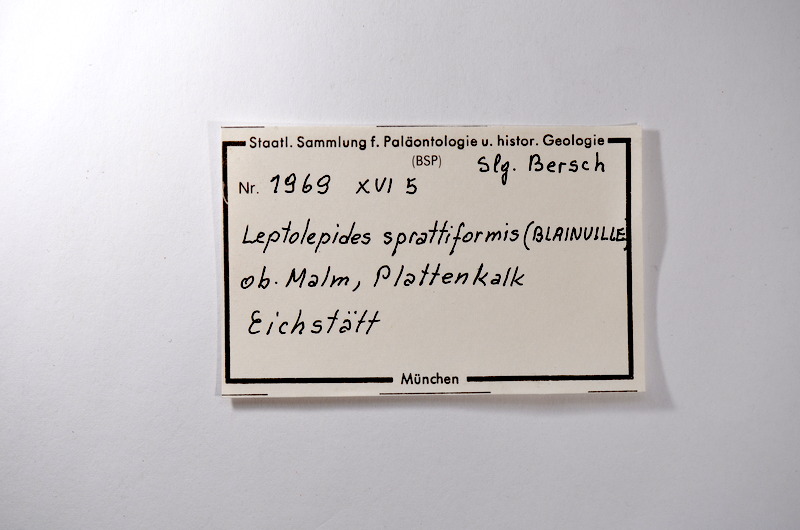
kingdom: Animalia
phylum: Chordata
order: Salmoniformes
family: Orthogonikleithridae
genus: Leptolepides
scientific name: Leptolepides sprattiformis
